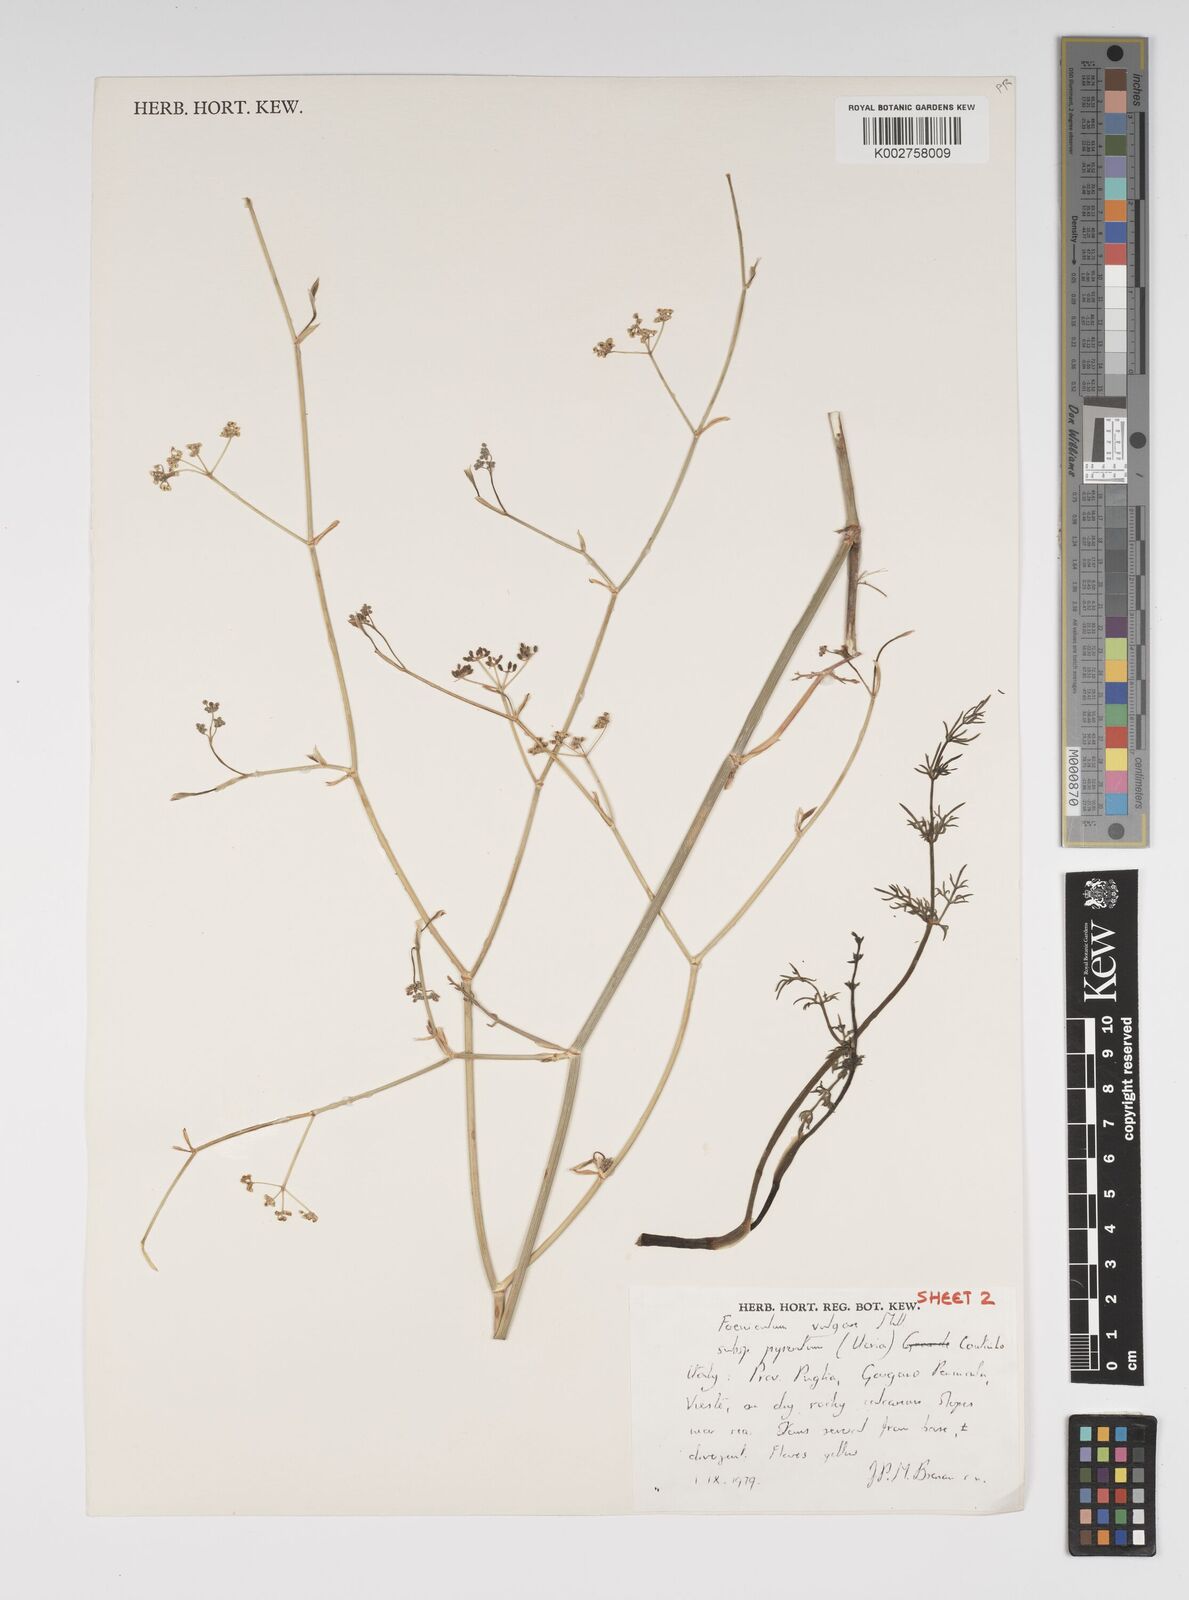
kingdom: Plantae
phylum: Tracheophyta
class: Magnoliopsida
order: Apiales
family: Apiaceae
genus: Foeniculum
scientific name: Foeniculum vulgare
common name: Fennel
